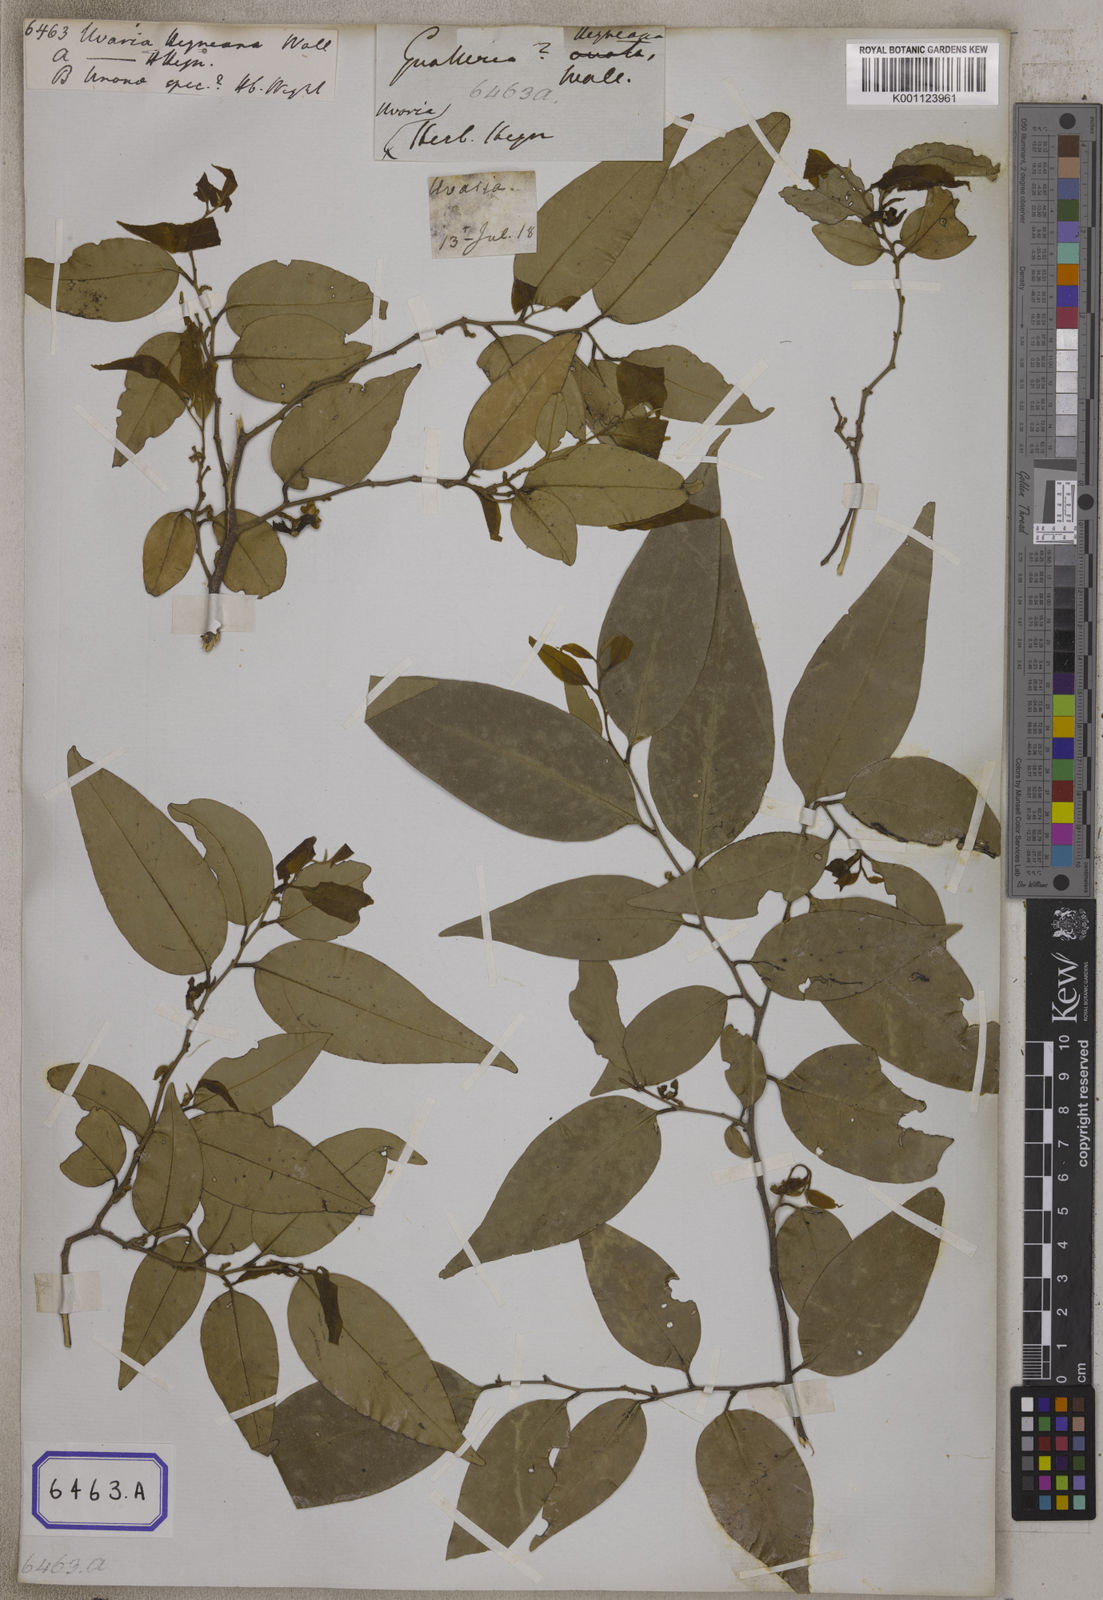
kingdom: Plantae
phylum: Tracheophyta
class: Magnoliopsida
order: Magnoliales
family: Annonaceae
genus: Mitrephora
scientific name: Mitrephora heyneana
